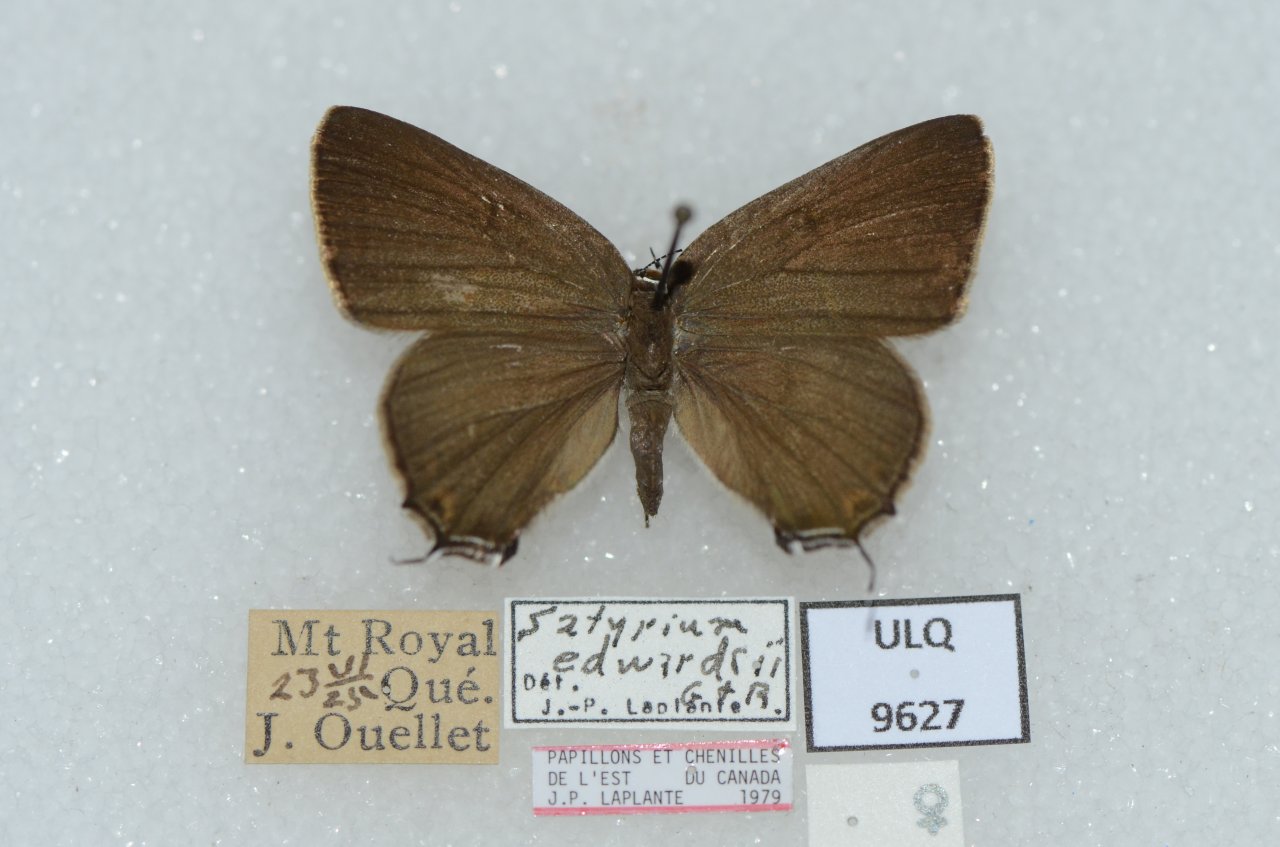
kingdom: Animalia
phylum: Arthropoda
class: Insecta
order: Lepidoptera
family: Lycaenidae
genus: Satyrium
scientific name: Satyrium calanus
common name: Banded Hairstreak
